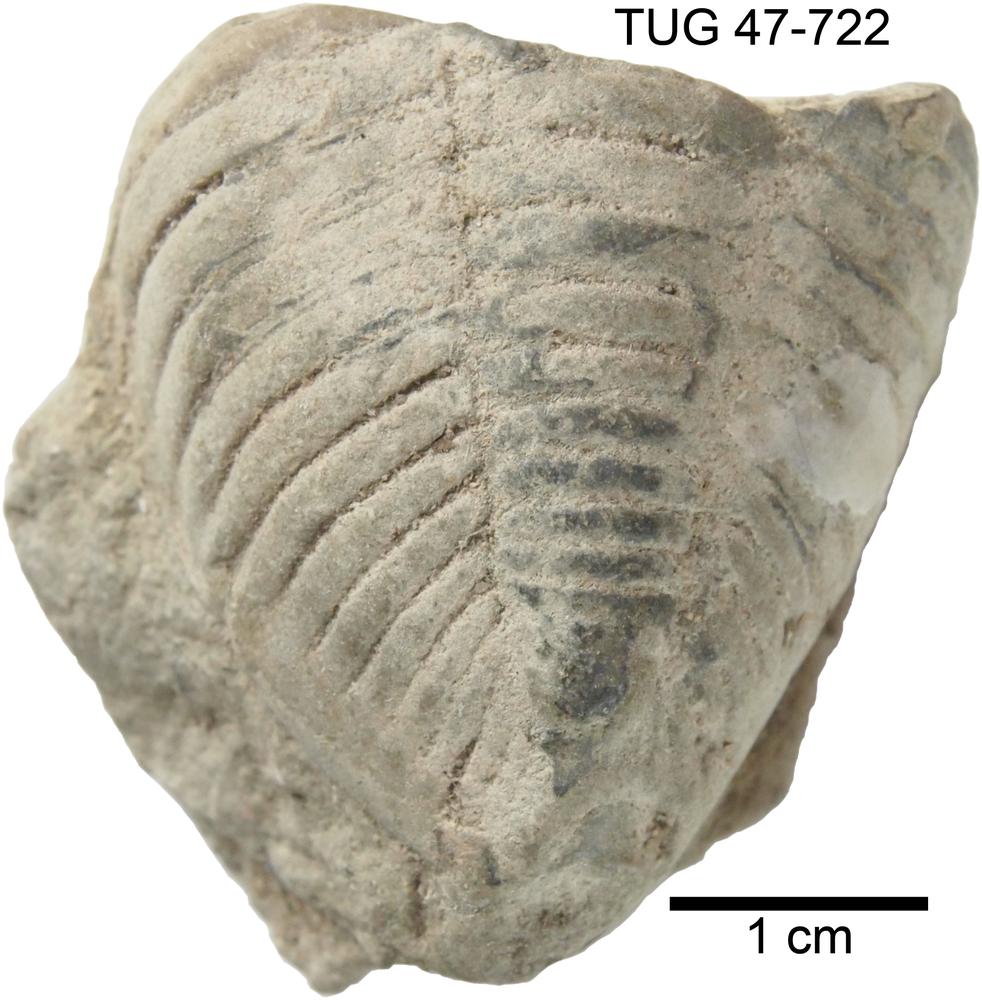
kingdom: Animalia
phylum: Arthropoda
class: Trilobita
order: Phacopida
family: Pterygometopidae
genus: Oculichasmops
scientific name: Oculichasmops
